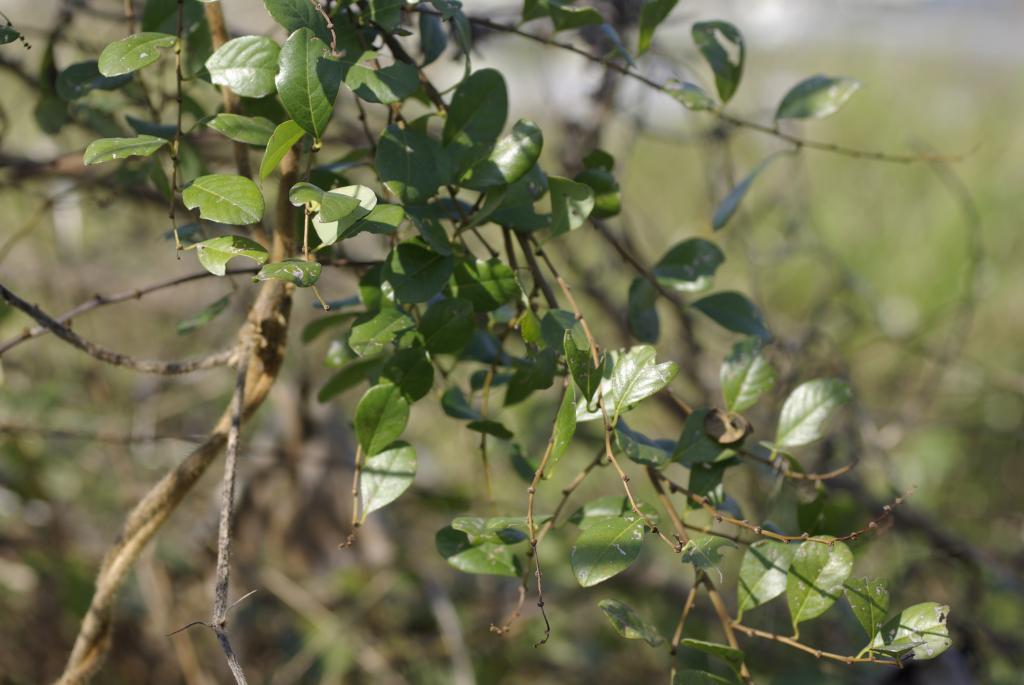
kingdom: Plantae
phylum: Tracheophyta
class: Magnoliopsida
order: Malpighiales
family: Phyllanthaceae
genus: Flueggea
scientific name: Flueggea virosa
